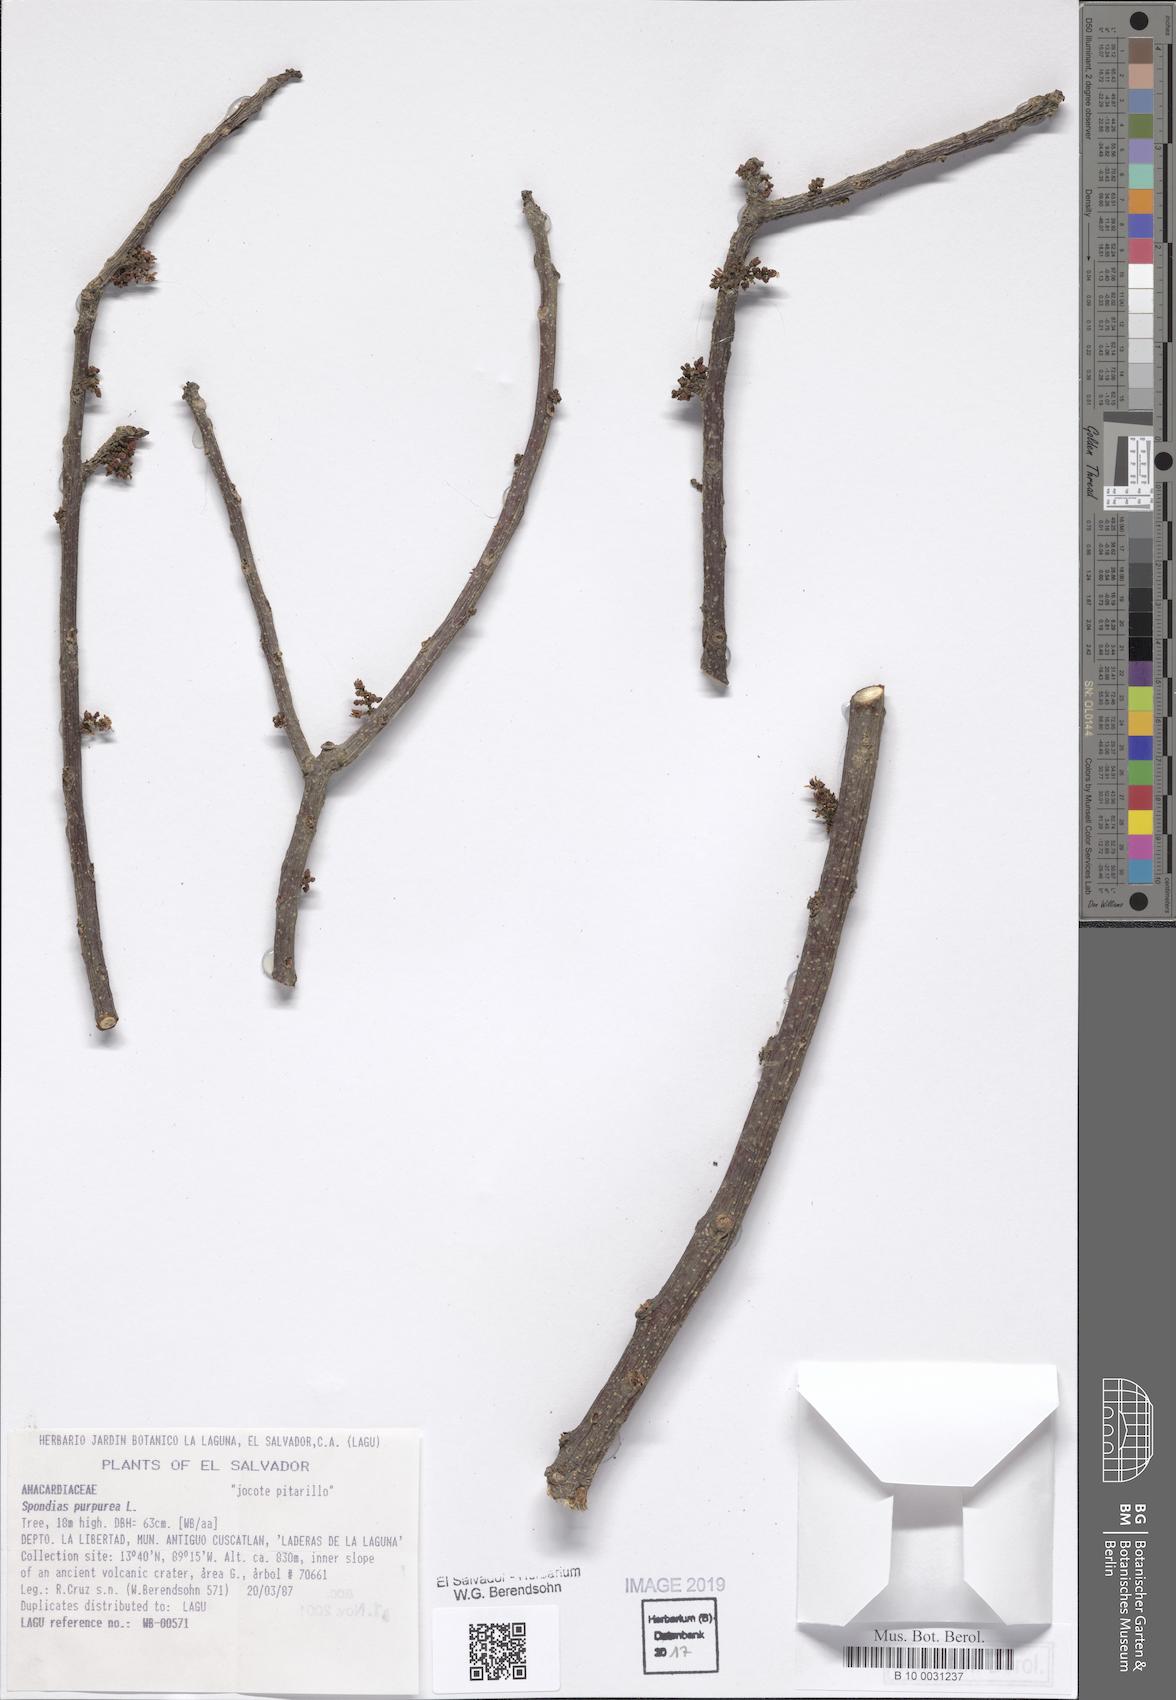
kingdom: Plantae
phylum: Tracheophyta
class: Magnoliopsida
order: Sapindales
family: Anacardiaceae
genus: Spondias
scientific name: Spondias purpurea
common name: Purple mombin
